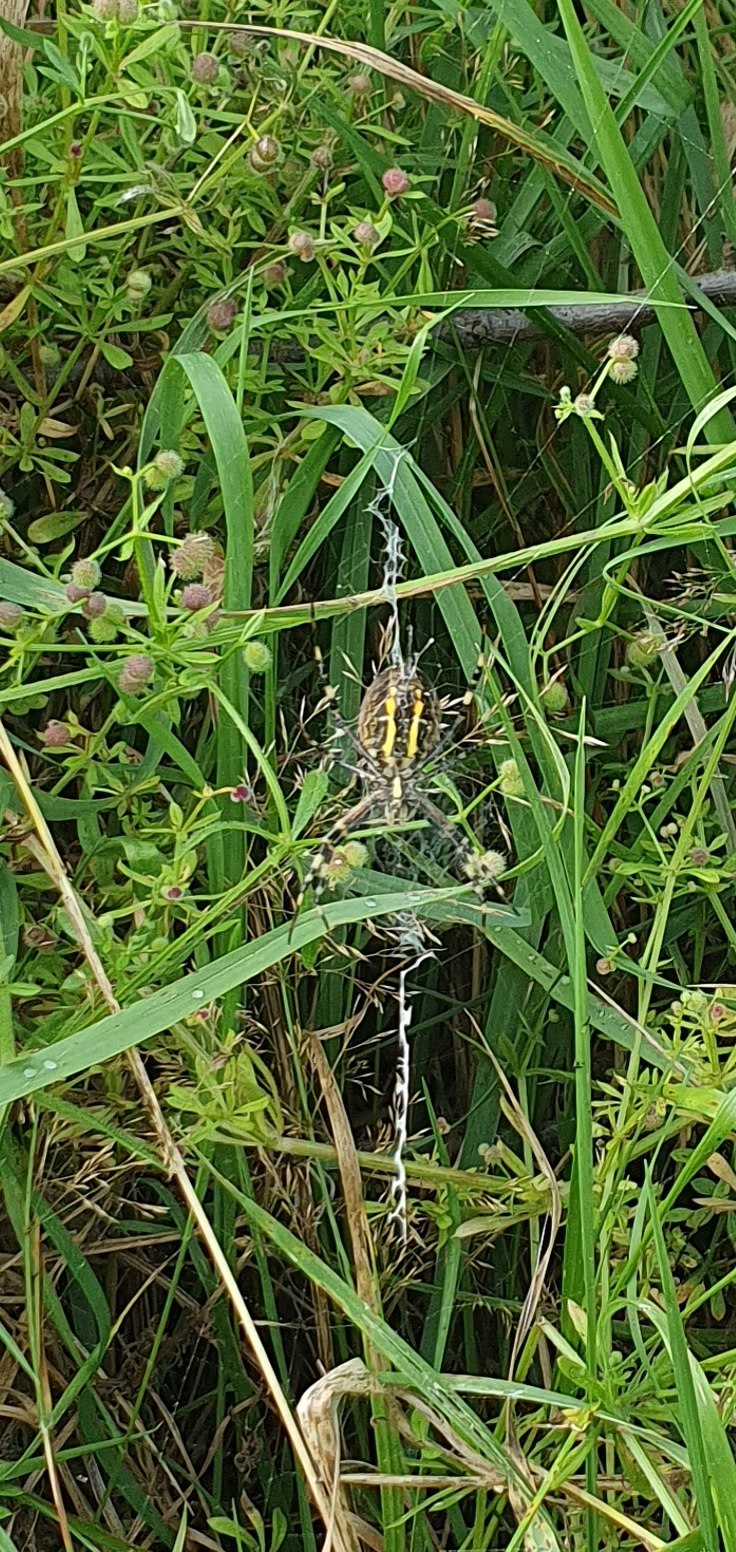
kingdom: Animalia
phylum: Arthropoda
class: Arachnida
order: Araneae
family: Araneidae
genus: Argiope
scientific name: Argiope bruennichi
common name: Hvepseedderkop
